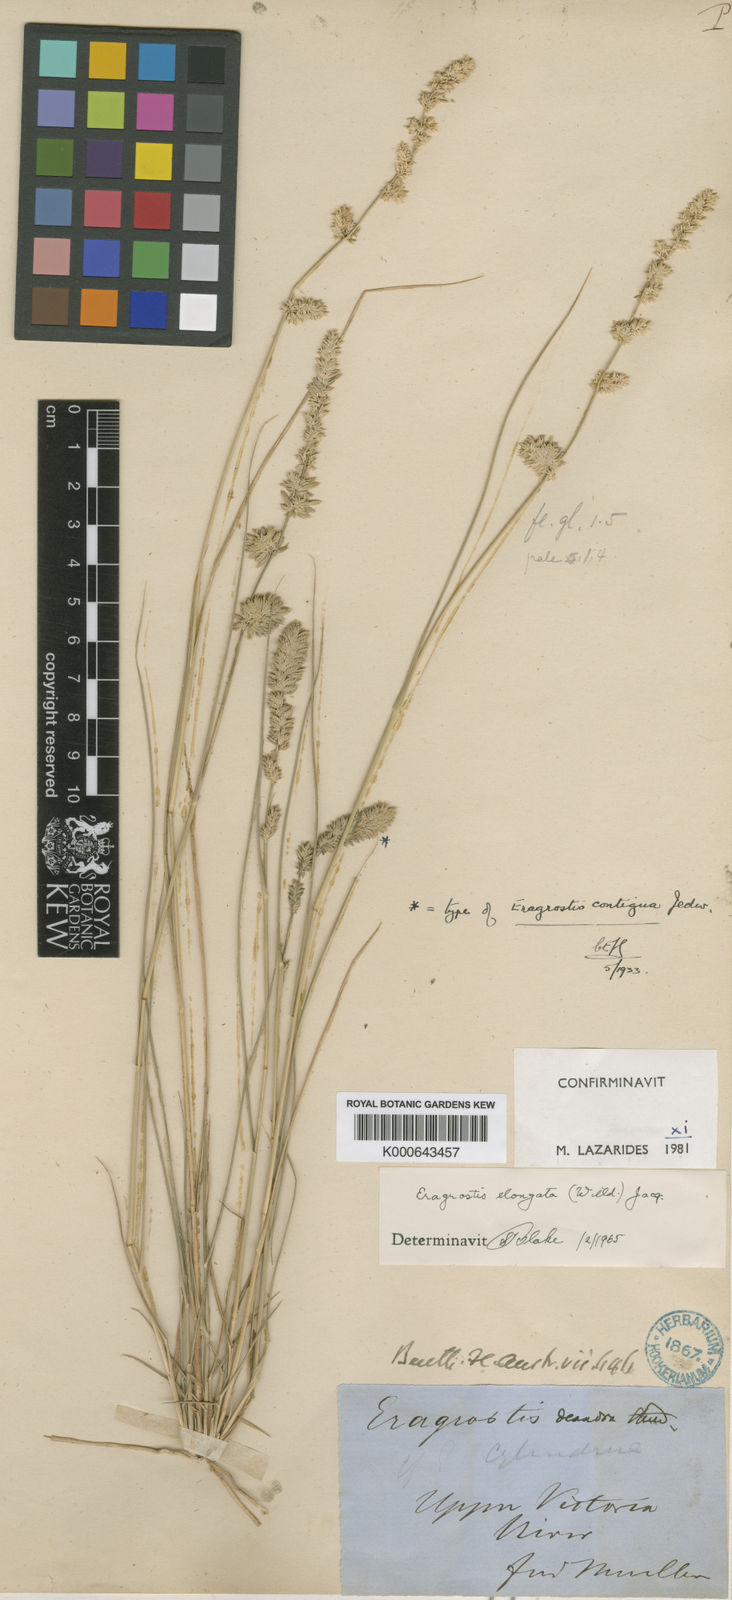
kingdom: Plantae
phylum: Tracheophyta
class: Liliopsida
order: Poales
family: Poaceae
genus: Eragrostis
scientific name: Eragrostis elongata
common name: Long lovegrass
